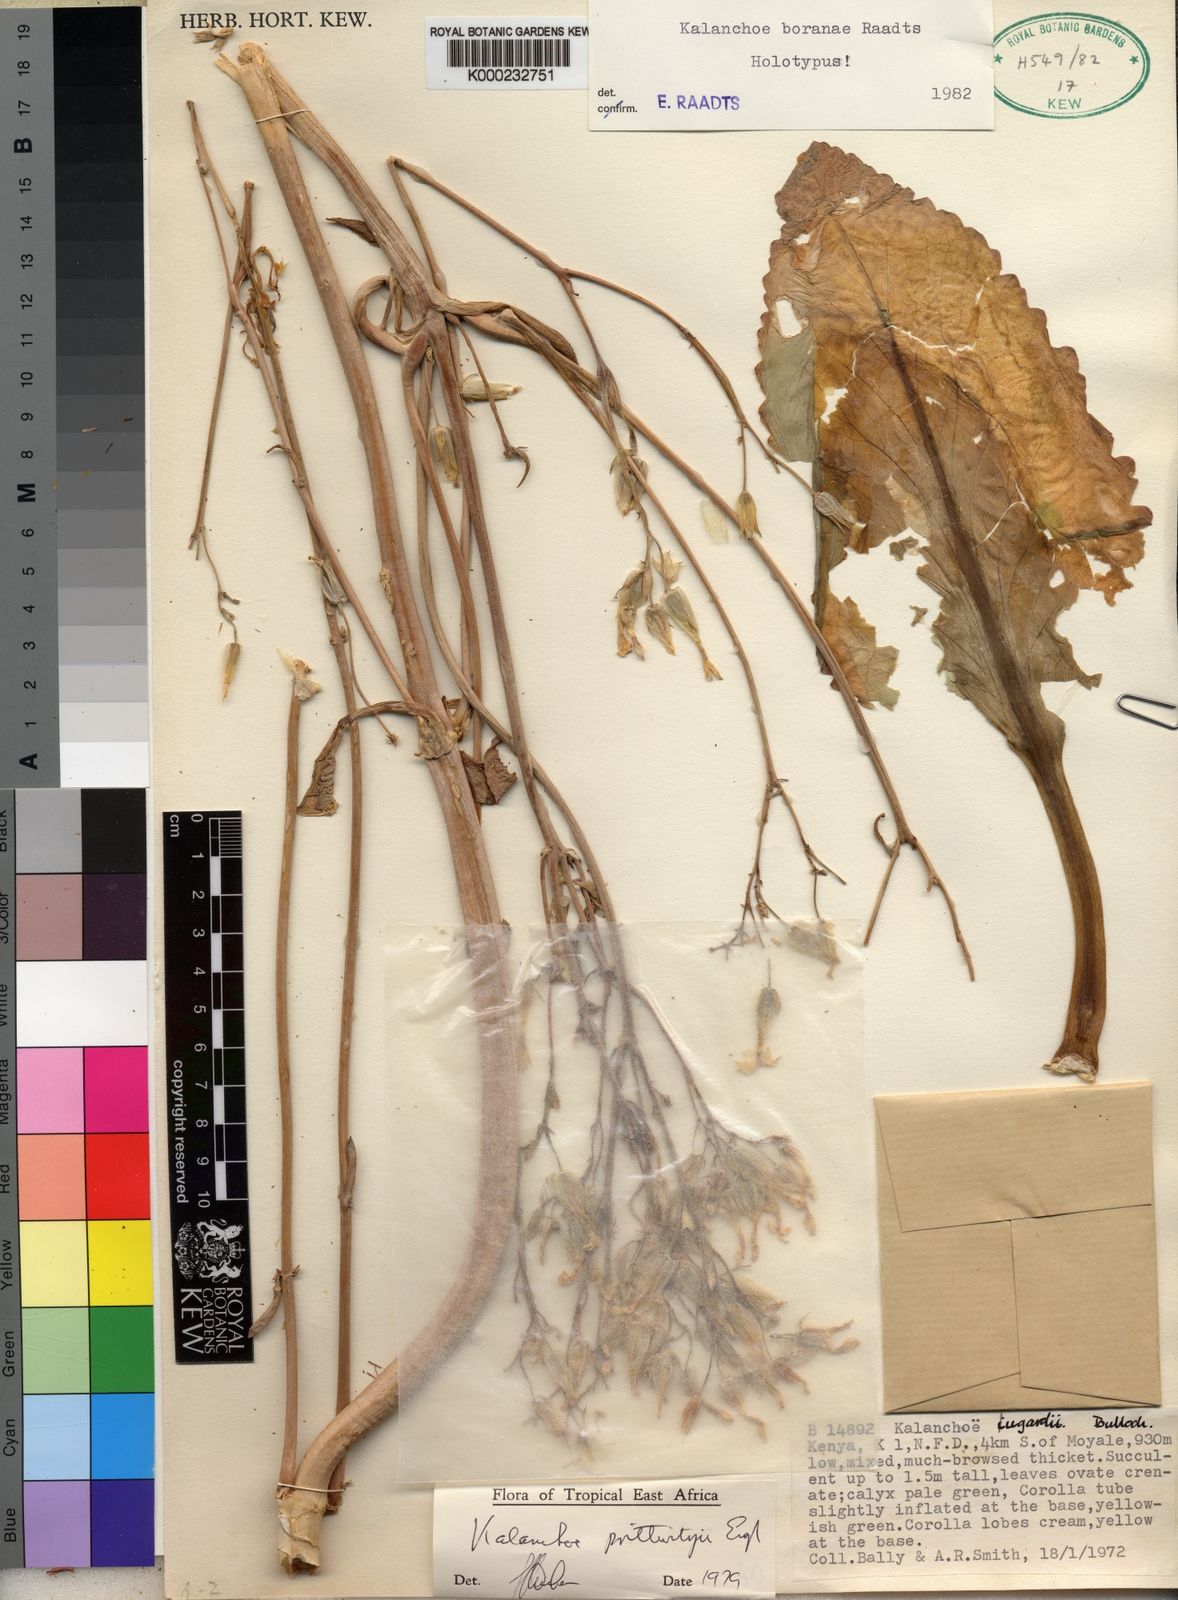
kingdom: Plantae
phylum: Tracheophyta
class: Magnoliopsida
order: Saxifragales
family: Crassulaceae
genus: Kalanchoe
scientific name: Kalanchoe boranae
